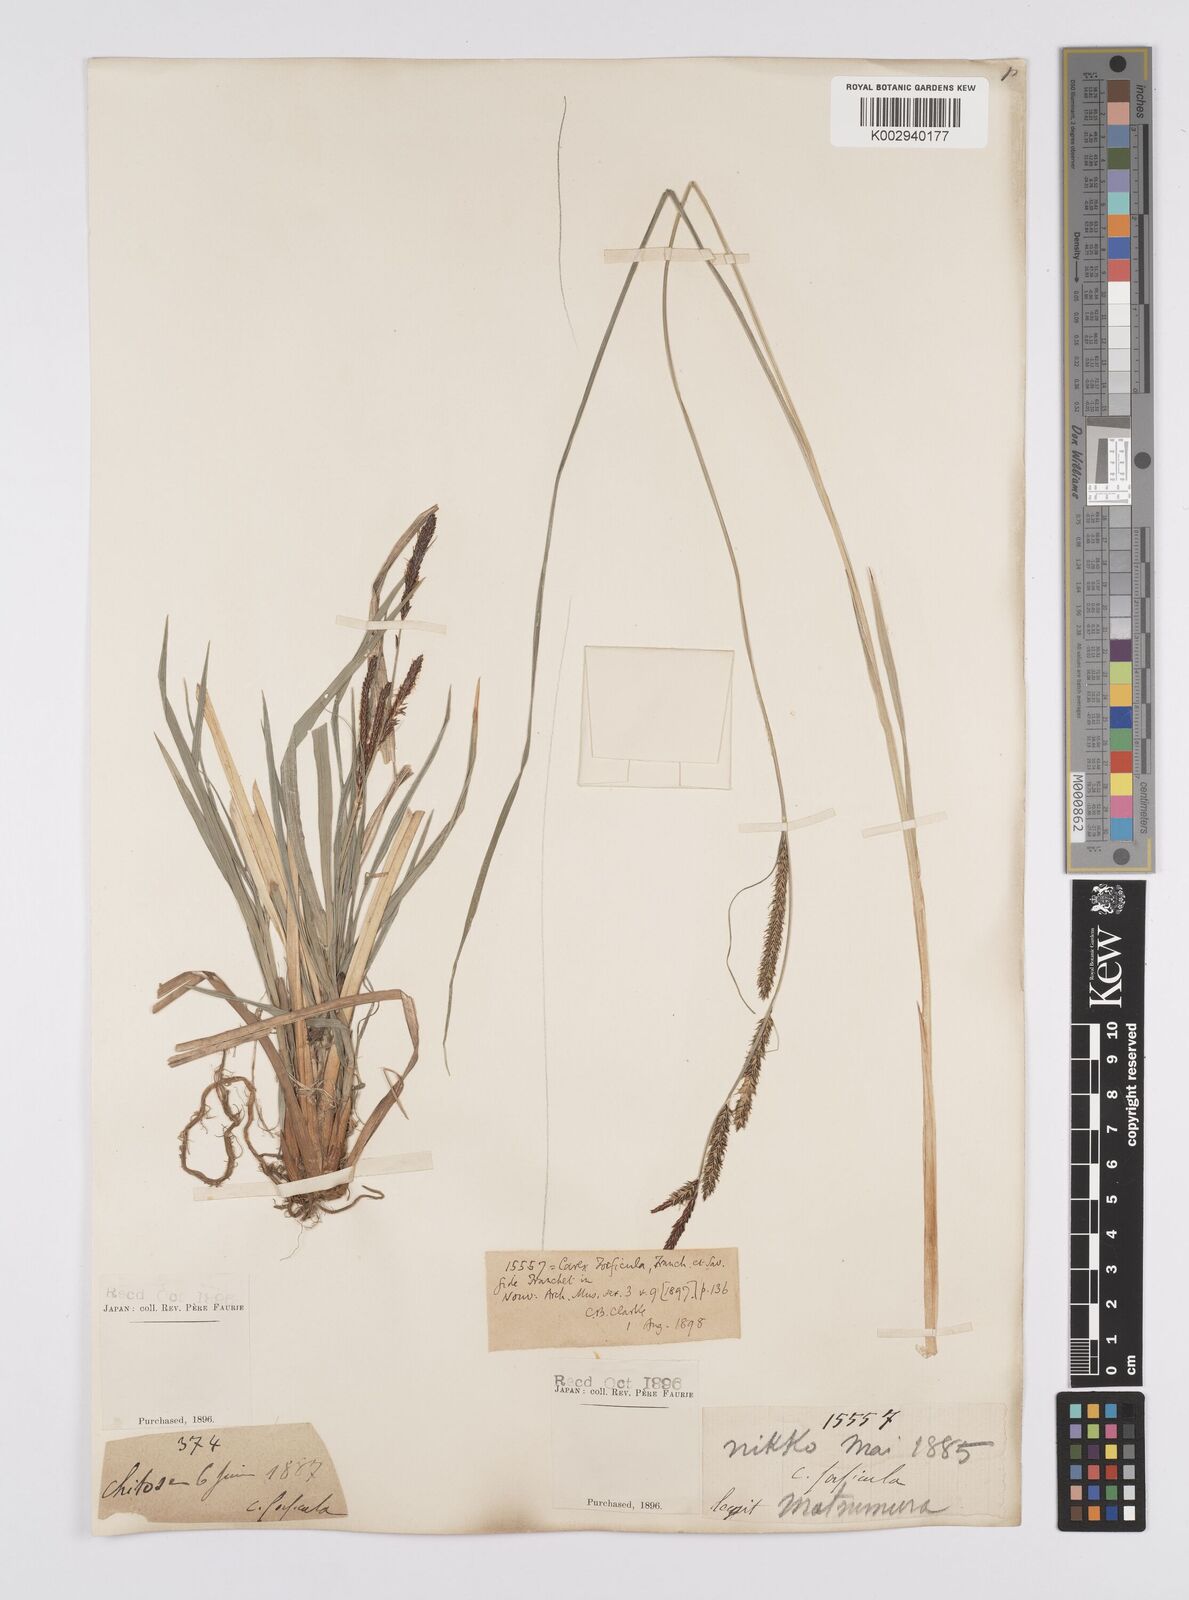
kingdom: Plantae
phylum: Tracheophyta
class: Liliopsida
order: Poales
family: Cyperaceae
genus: Carex
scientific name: Carex forficula
